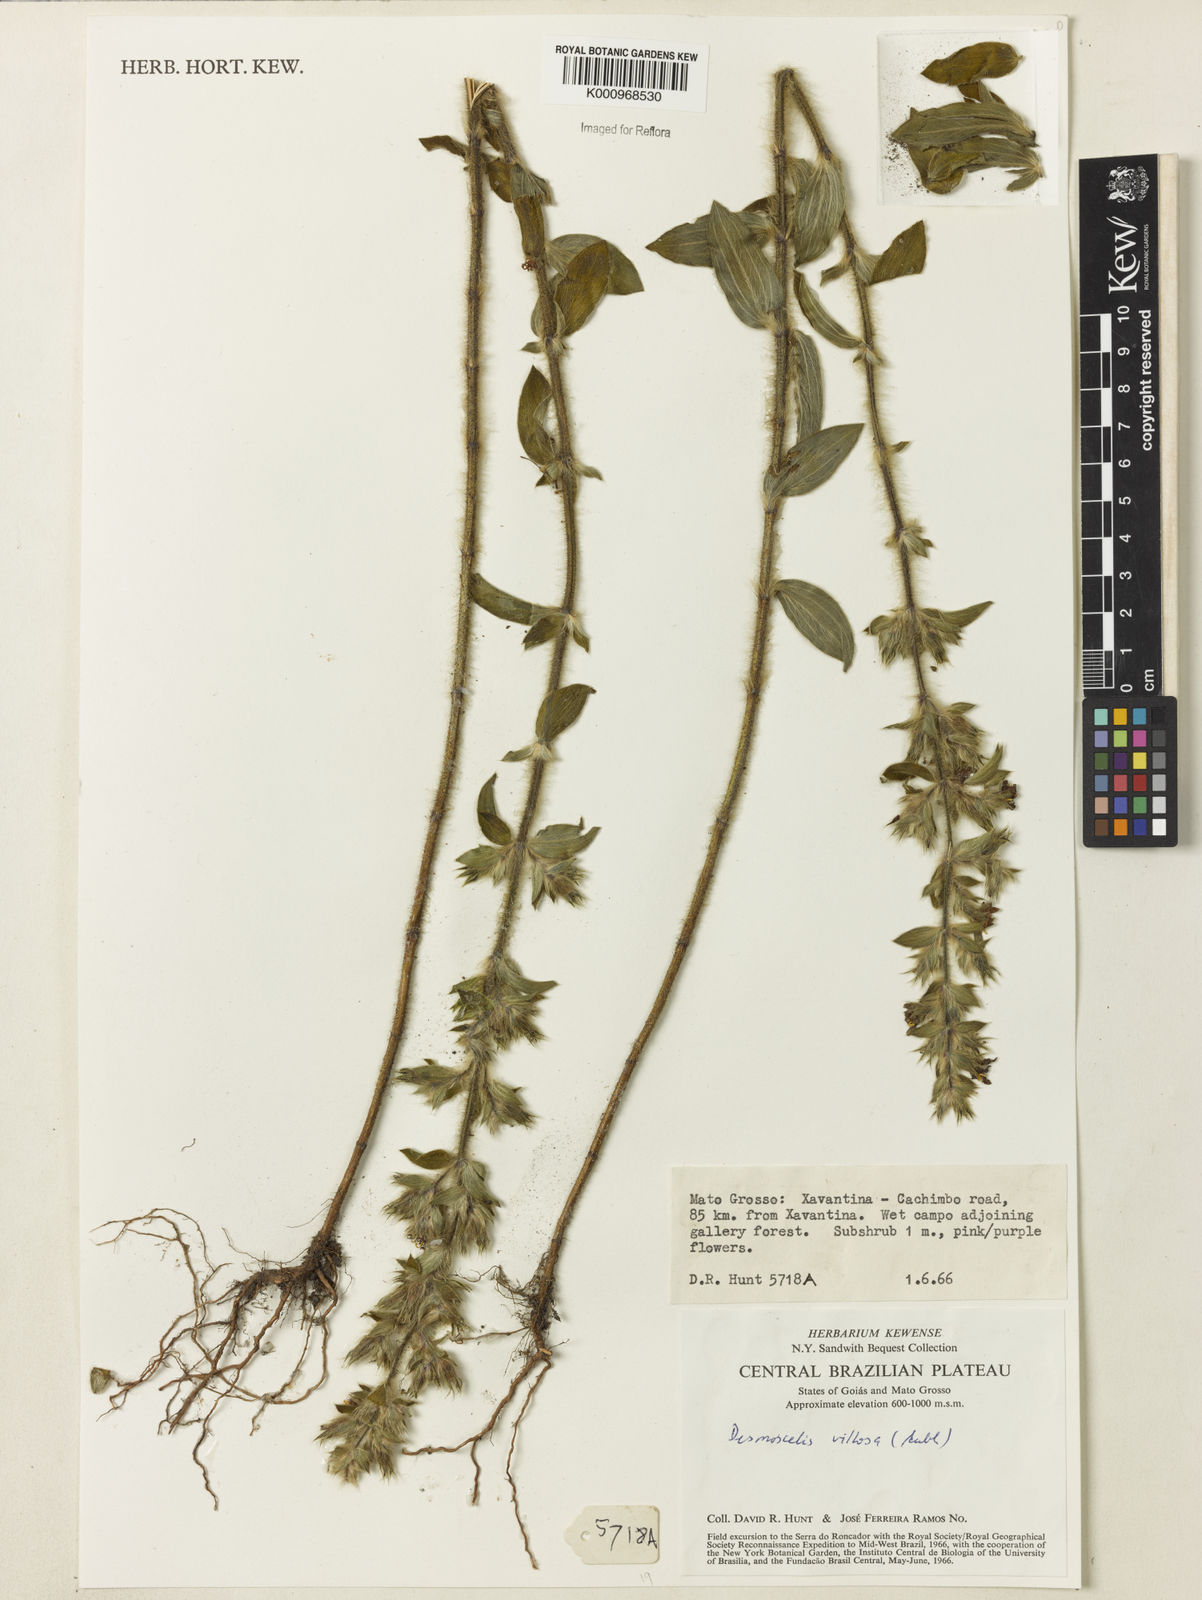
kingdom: Plantae
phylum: Tracheophyta
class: Magnoliopsida
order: Myrtales
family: Melastomataceae
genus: Desmoscelis
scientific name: Desmoscelis villosa
